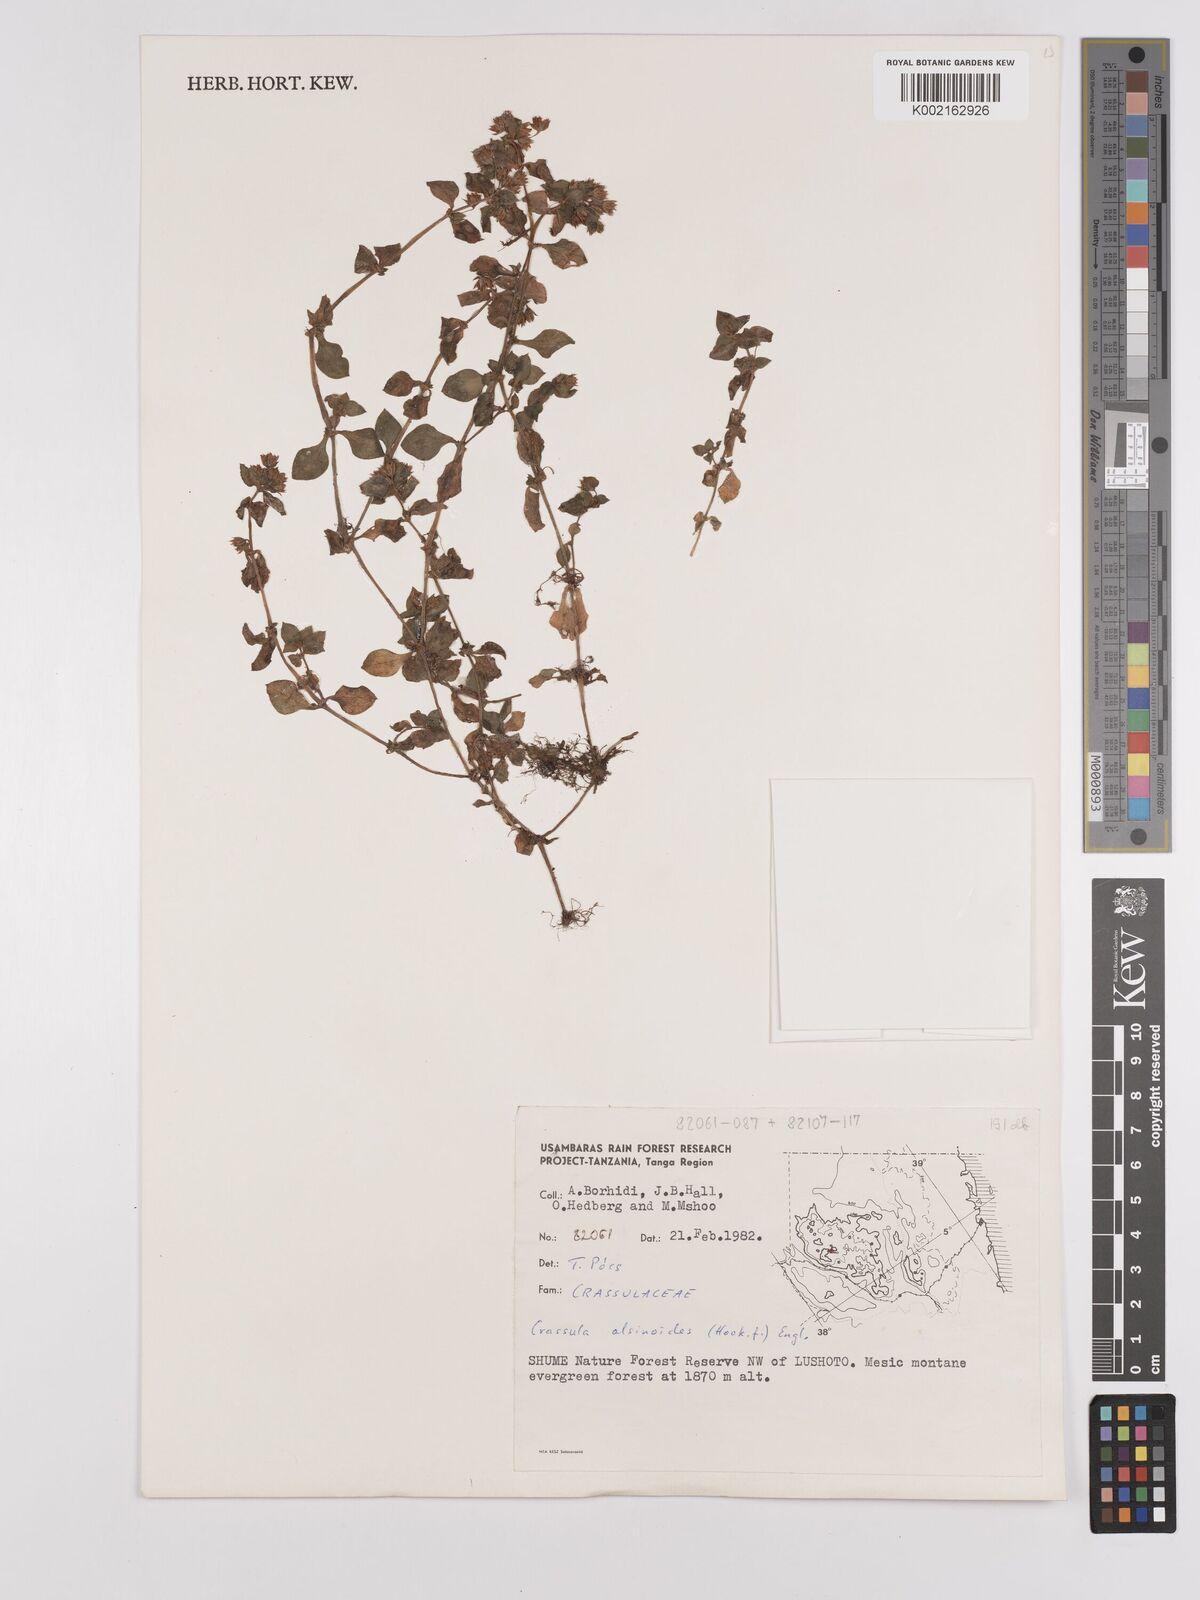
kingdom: Plantae
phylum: Tracheophyta
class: Magnoliopsida
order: Saxifragales
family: Crassulaceae
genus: Crassula
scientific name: Crassula alsinoides
